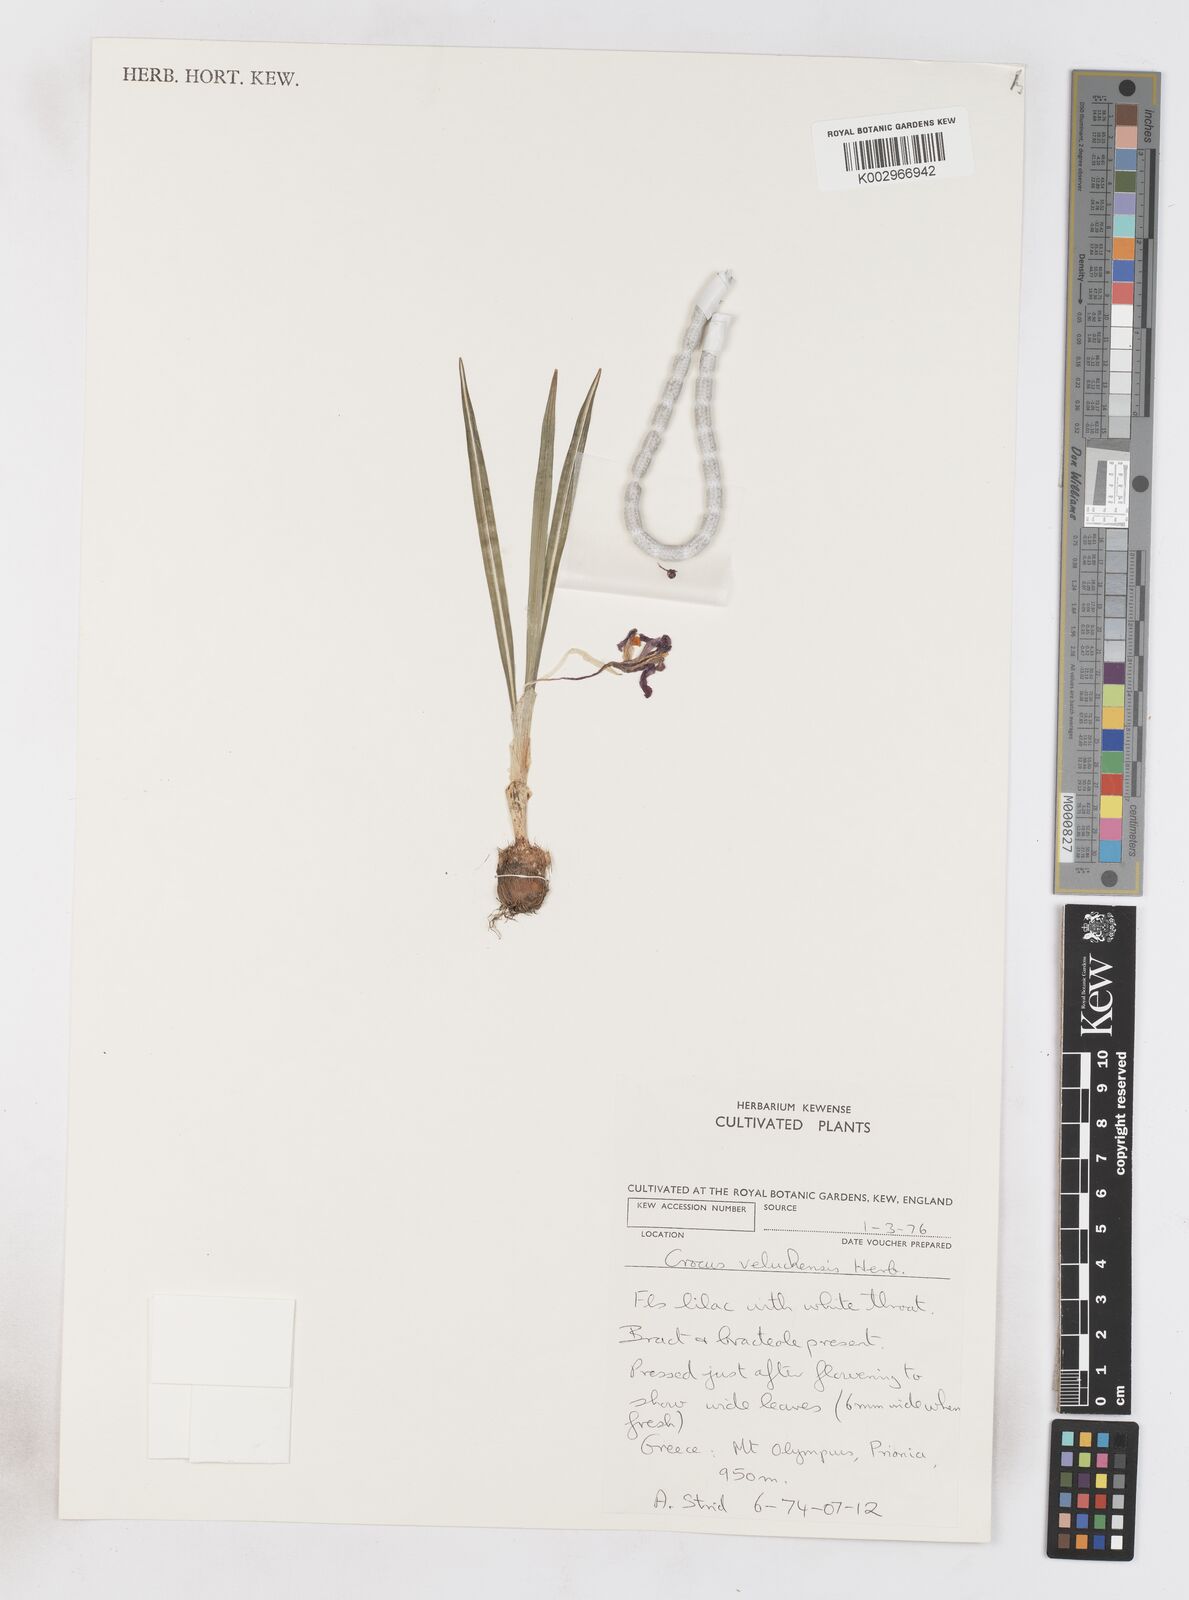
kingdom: Plantae
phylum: Tracheophyta
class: Liliopsida
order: Asparagales
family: Iridaceae
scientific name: Iridaceae
